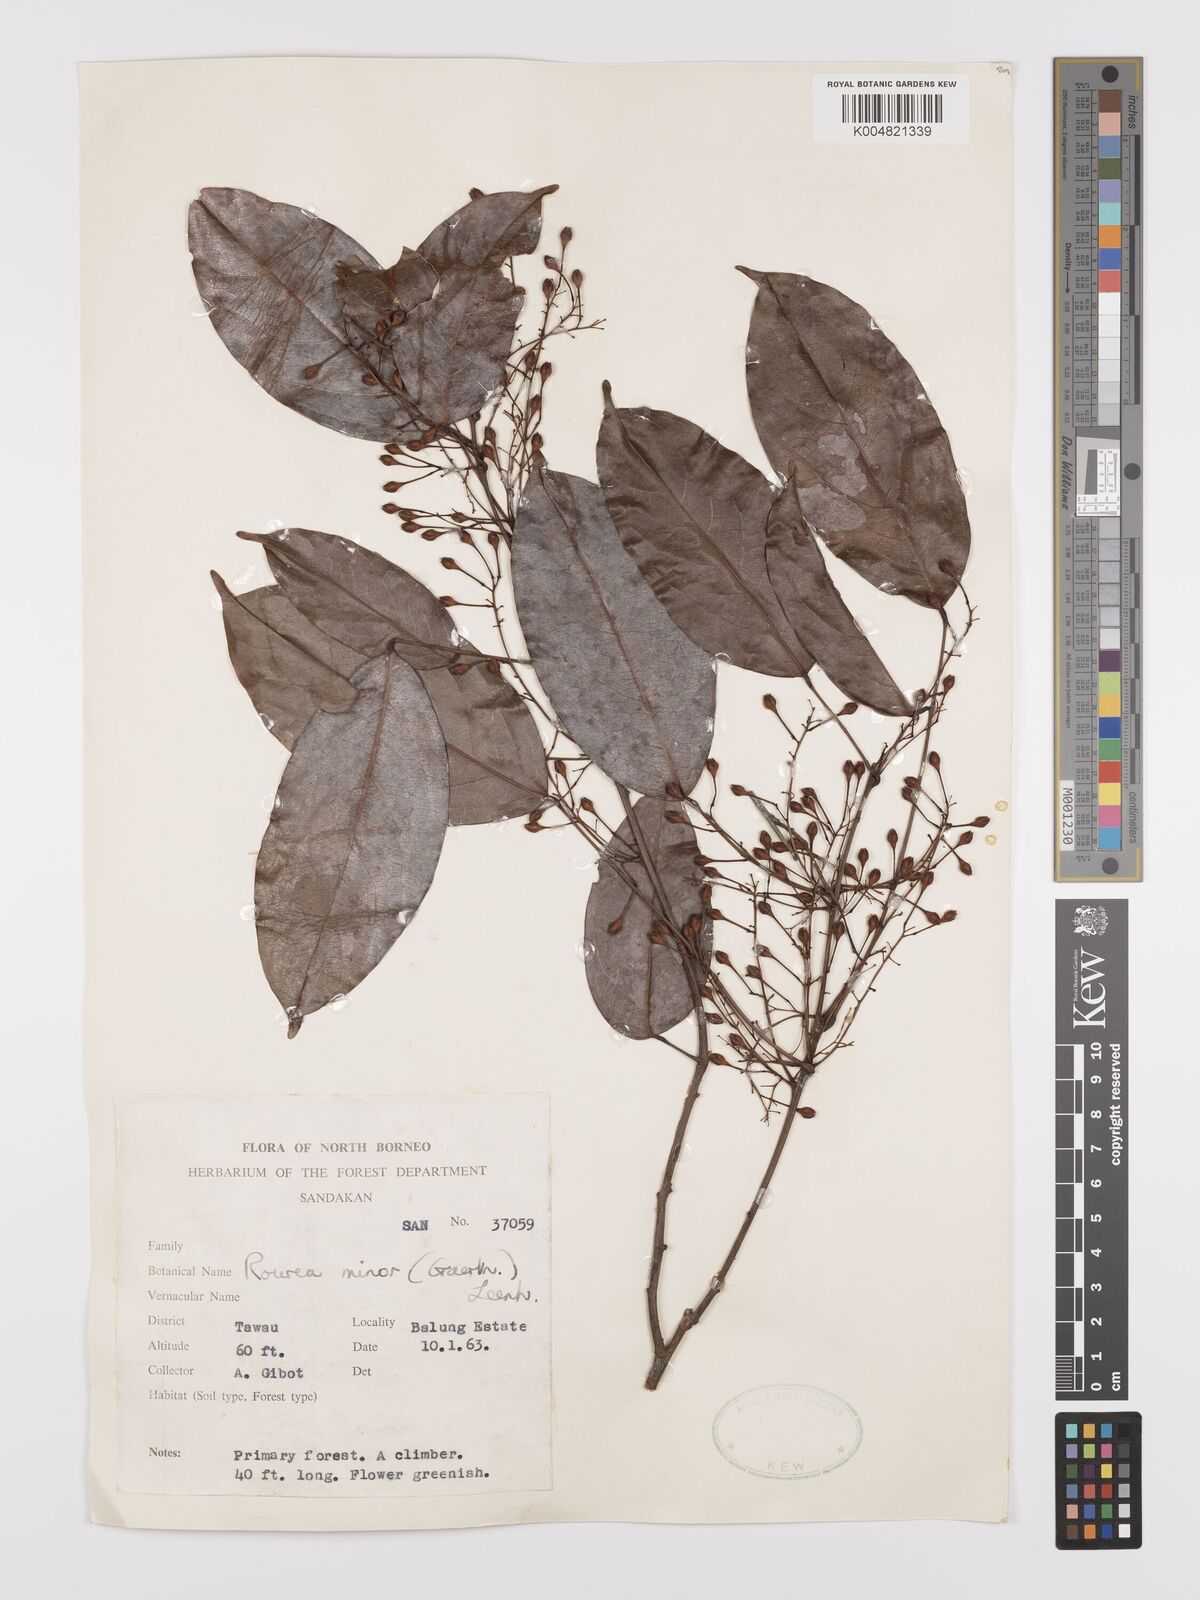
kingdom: Plantae
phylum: Tracheophyta
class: Magnoliopsida
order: Oxalidales
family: Connaraceae
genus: Rourea
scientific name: Rourea minor
